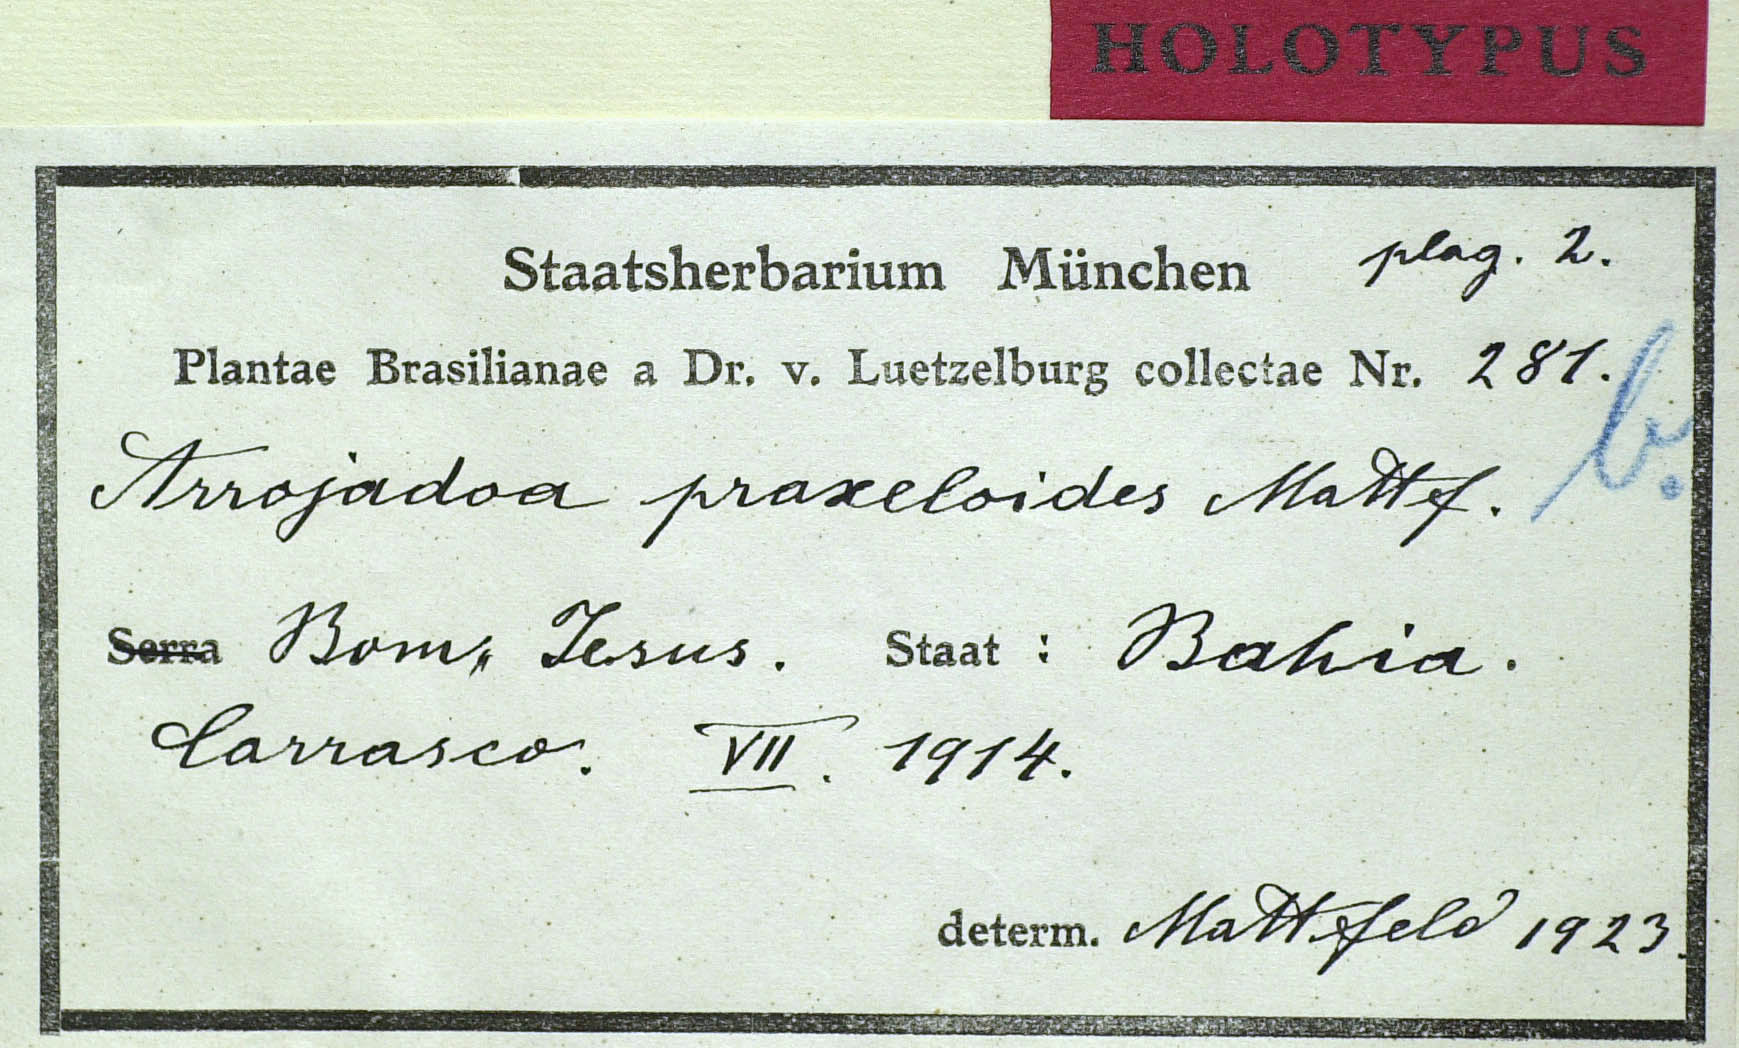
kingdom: Plantae
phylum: Tracheophyta
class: Magnoliopsida
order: Asterales
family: Asteraceae
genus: Arrojadocharis
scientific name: Arrojadocharis praxeloides
